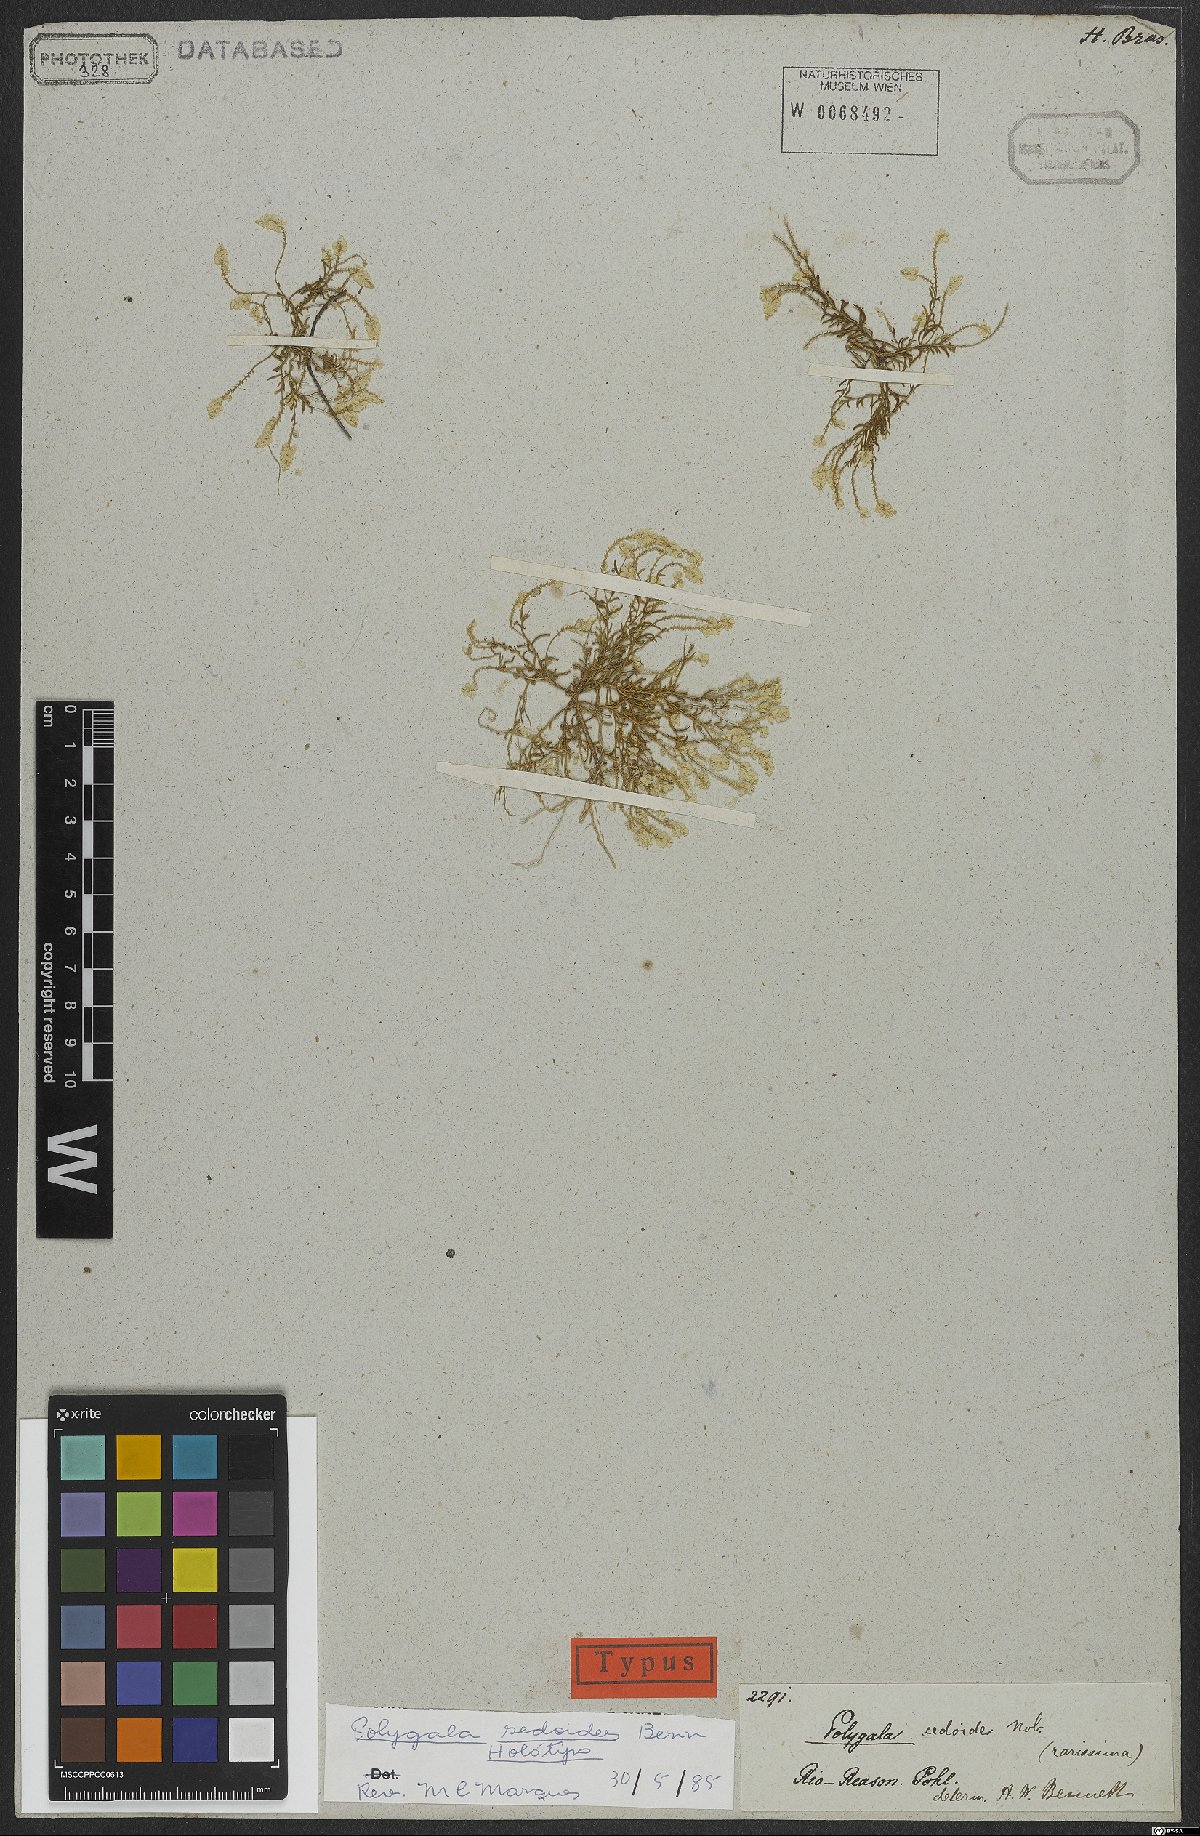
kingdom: Plantae
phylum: Tracheophyta
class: Magnoliopsida
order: Fabales
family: Polygalaceae
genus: Polygala
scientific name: Polygala sedoides
